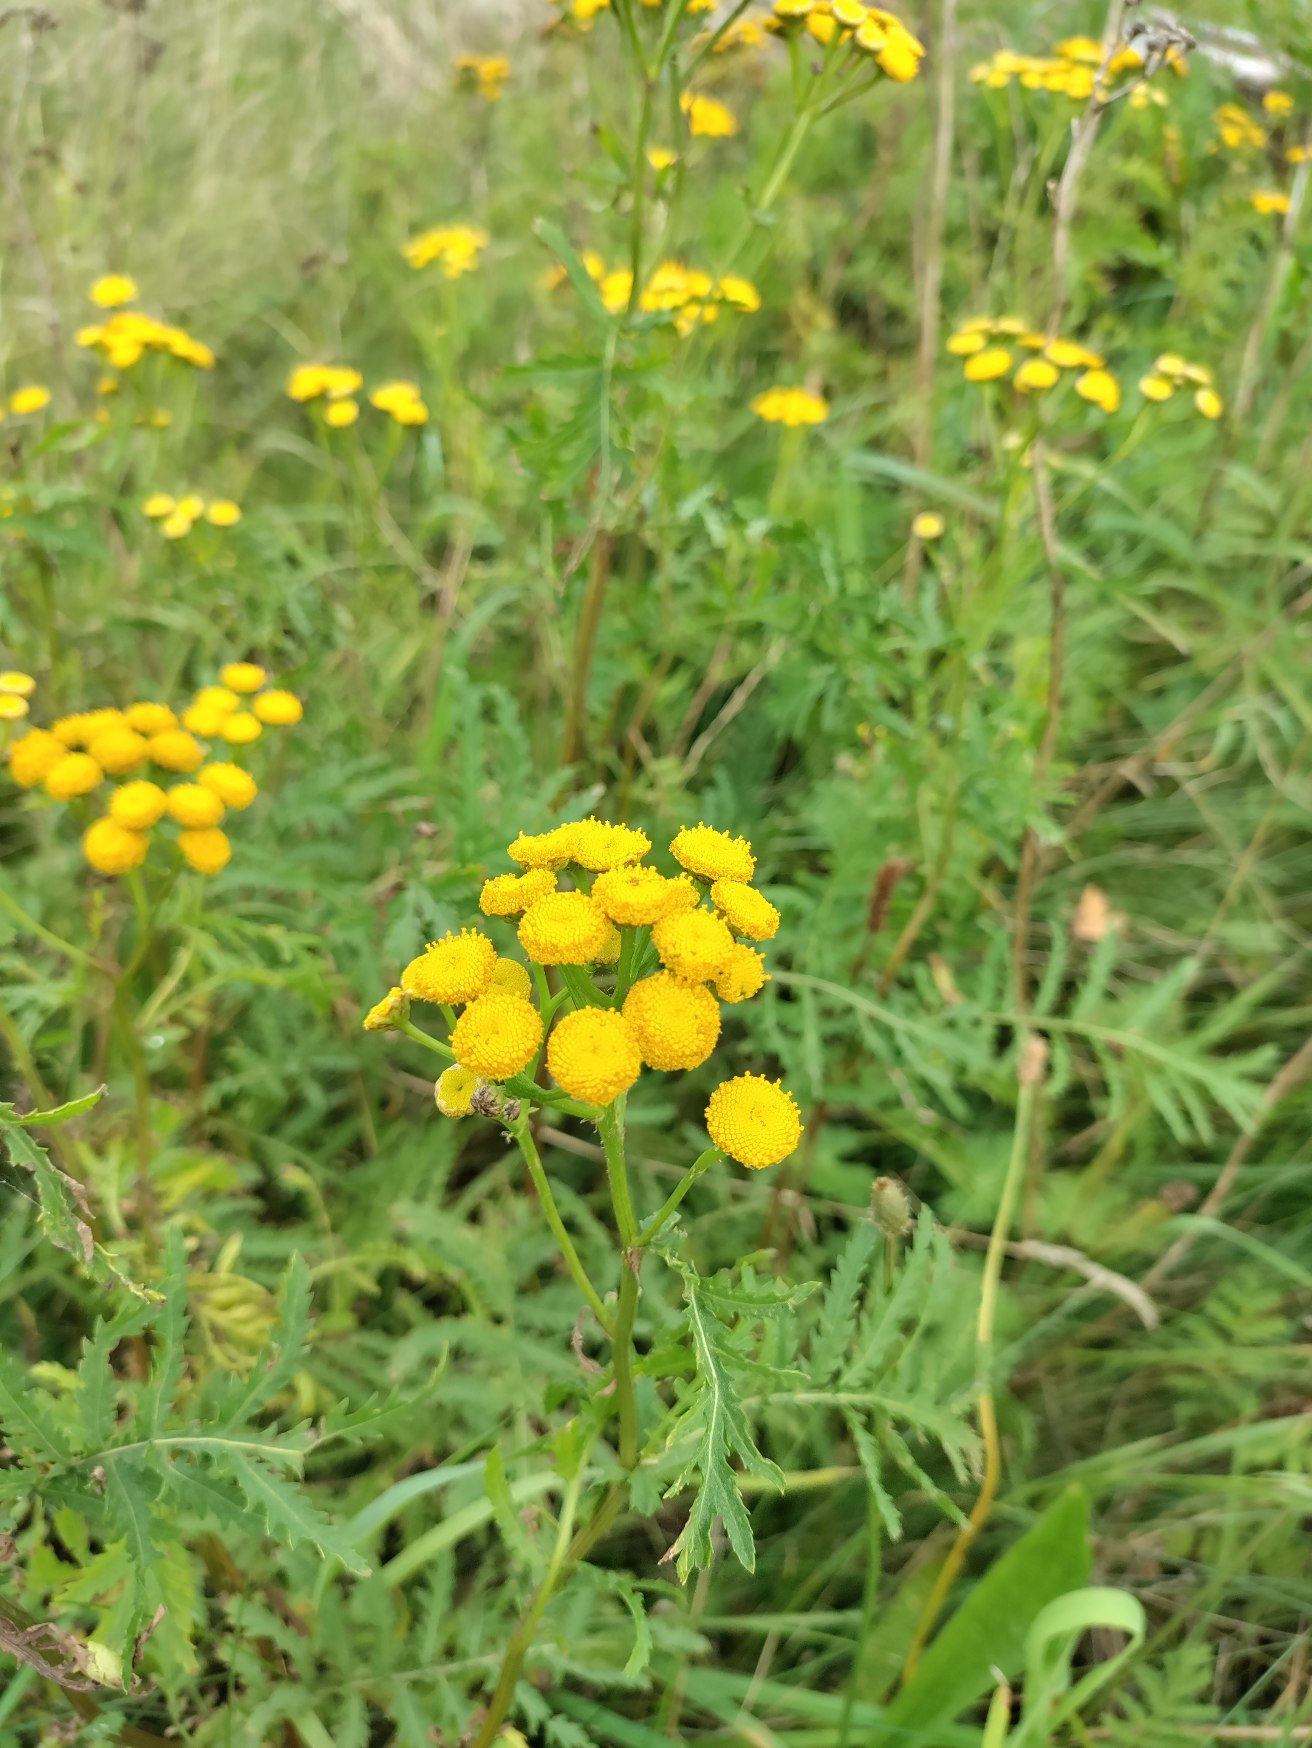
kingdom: Plantae
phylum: Tracheophyta
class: Magnoliopsida
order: Asterales
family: Asteraceae
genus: Tanacetum
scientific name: Tanacetum vulgare
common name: Rejnfan
